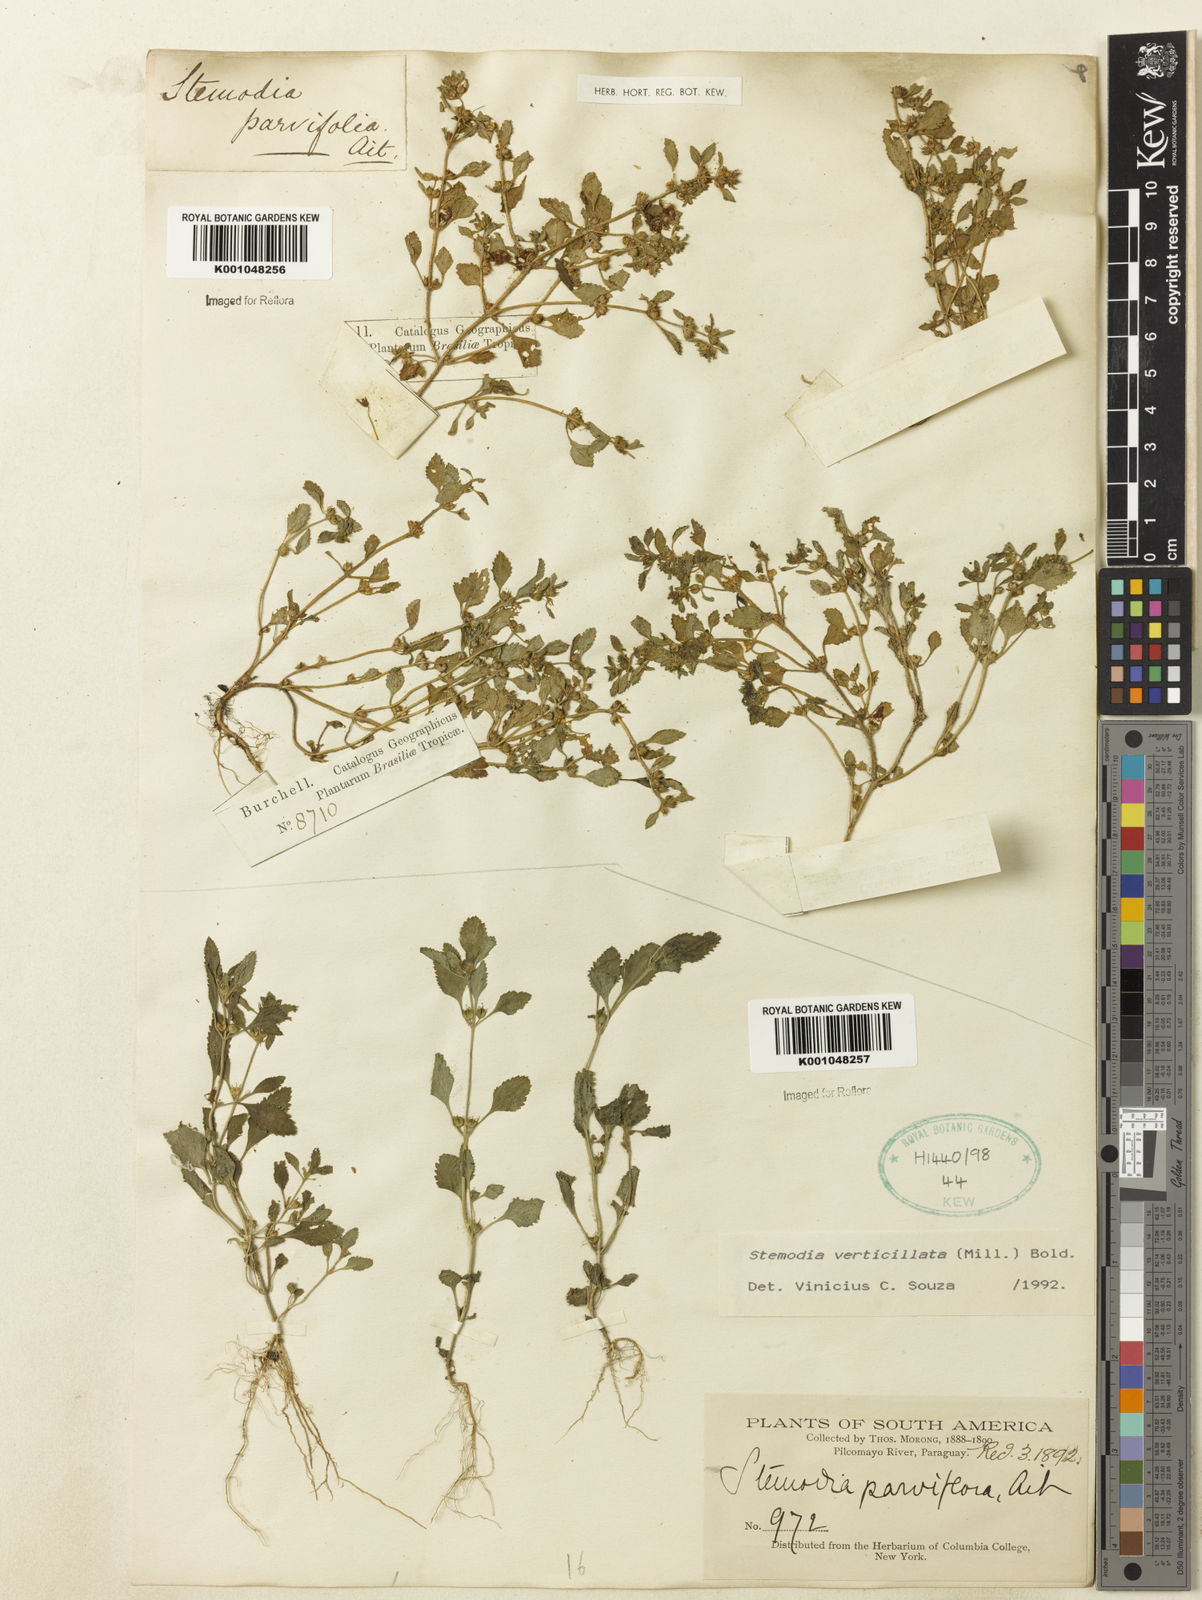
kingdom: Plantae
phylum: Tracheophyta
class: Magnoliopsida
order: Lamiales
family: Plantaginaceae
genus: Stemodia
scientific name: Stemodia verticillata
